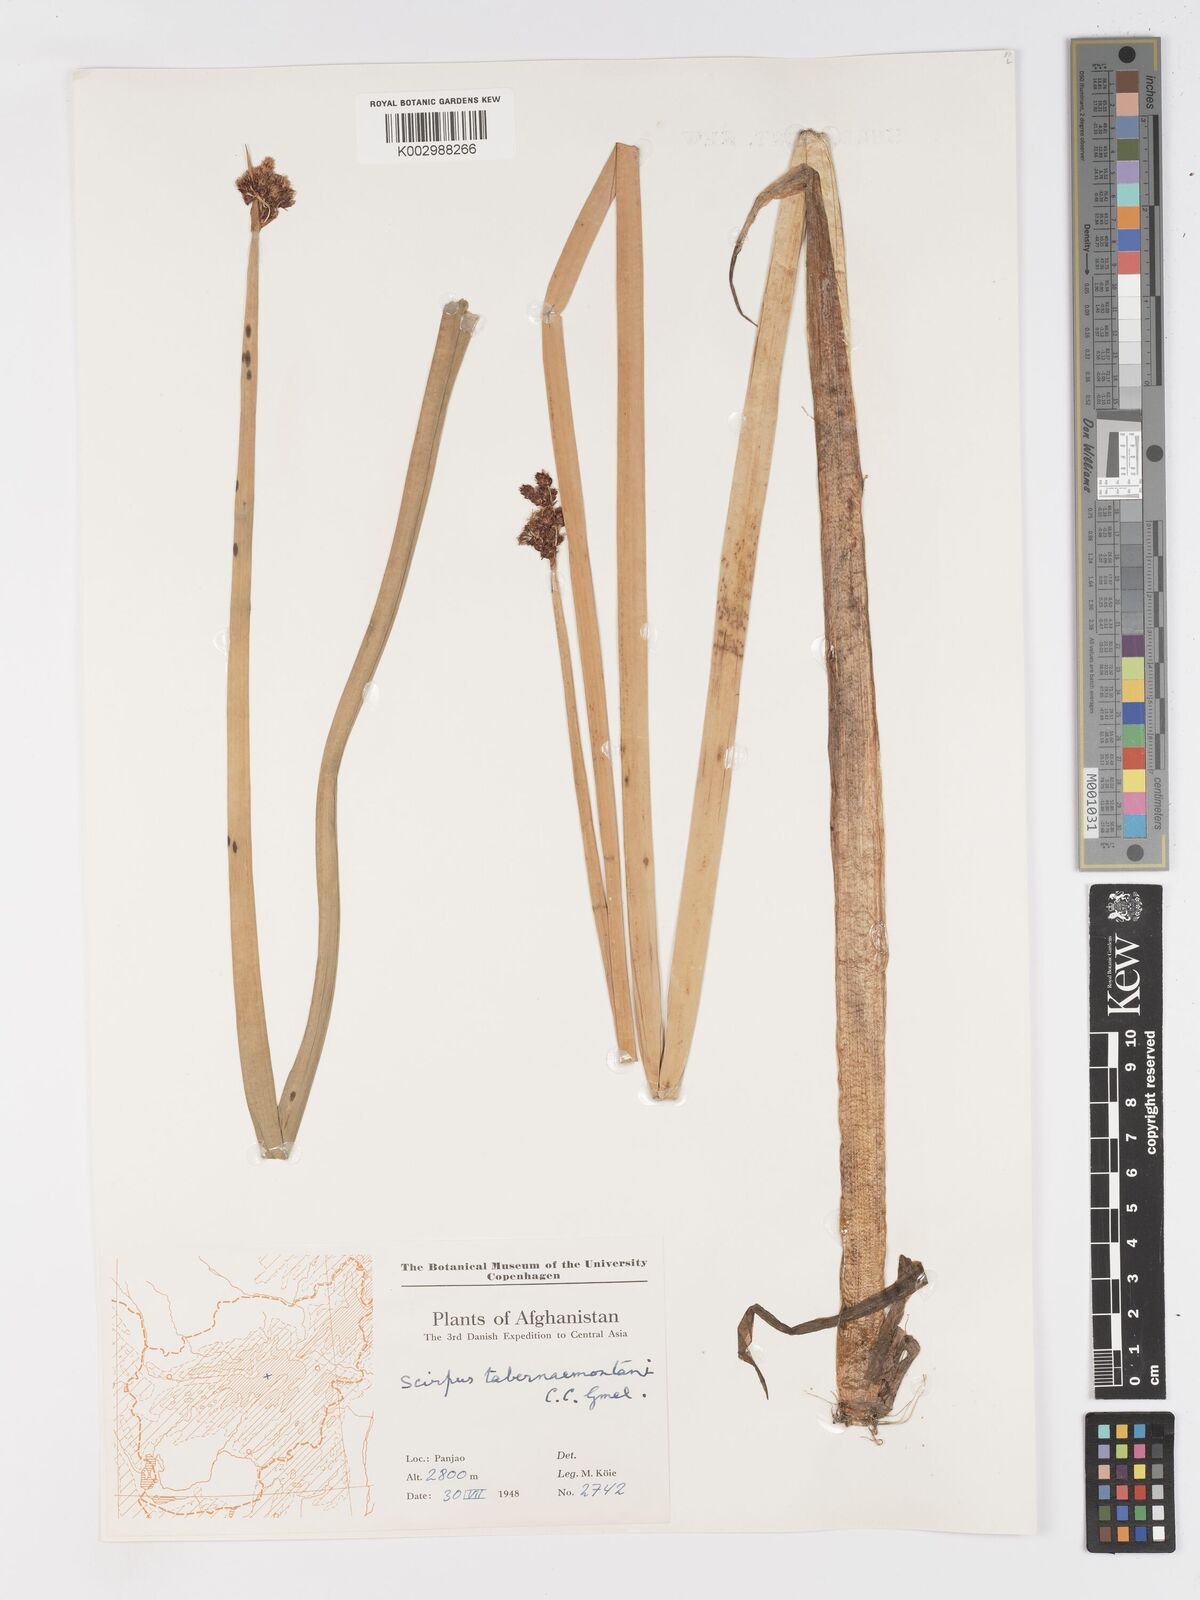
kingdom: Plantae
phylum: Tracheophyta
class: Liliopsida
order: Poales
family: Cyperaceae
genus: Schoenoplectus
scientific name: Schoenoplectus tabernaemontani
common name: Grey club-rush
